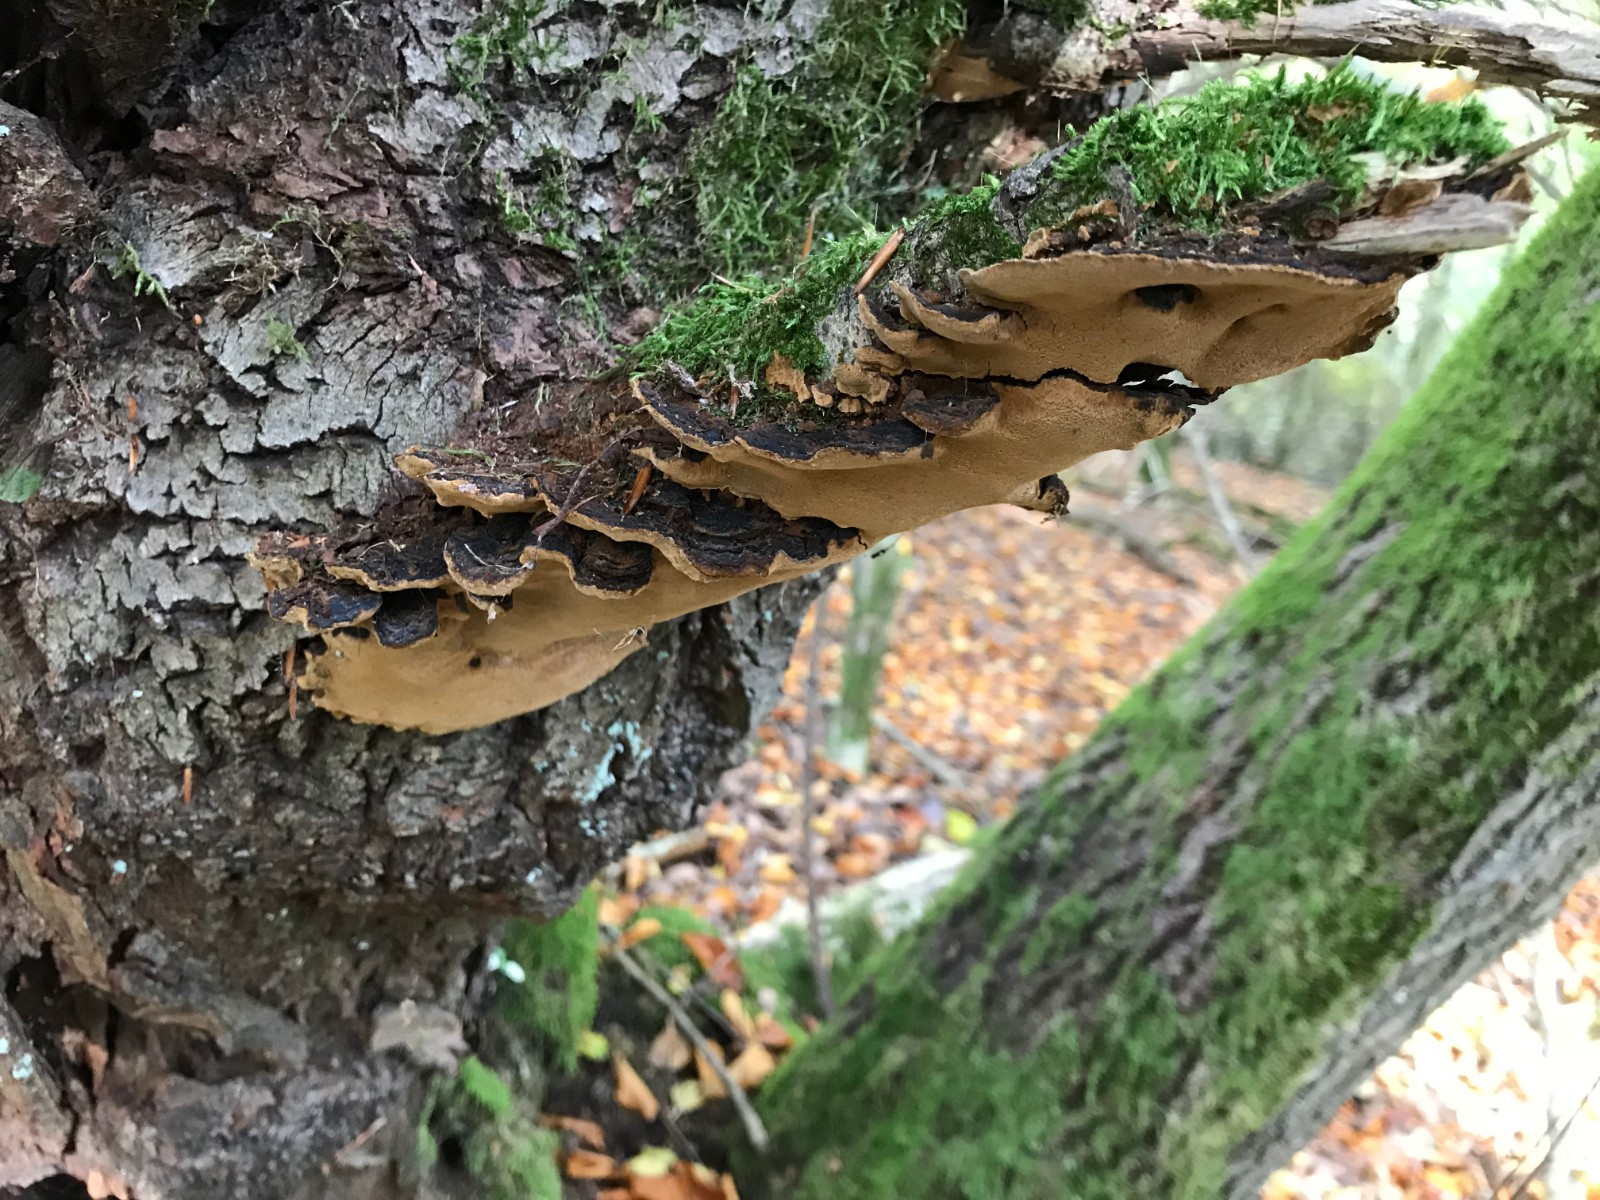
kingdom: Fungi
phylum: Basidiomycota
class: Agaricomycetes
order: Hymenochaetales
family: Hymenochaetaceae
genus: Phellinopsis
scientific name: Phellinopsis conchata
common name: pile-ildporesvamp
